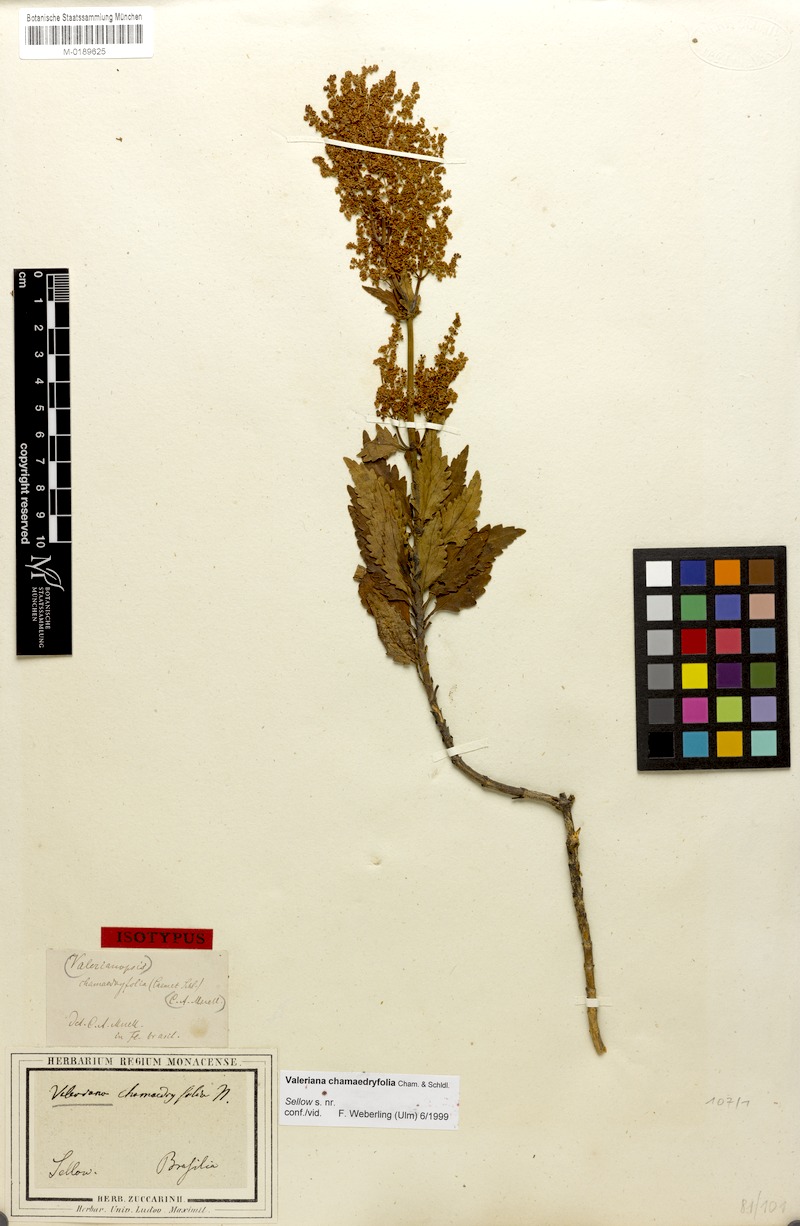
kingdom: Plantae
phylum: Tracheophyta
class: Magnoliopsida
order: Dipsacales
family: Caprifoliaceae
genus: Valeriana
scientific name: Valeriana chamaedryfolia
